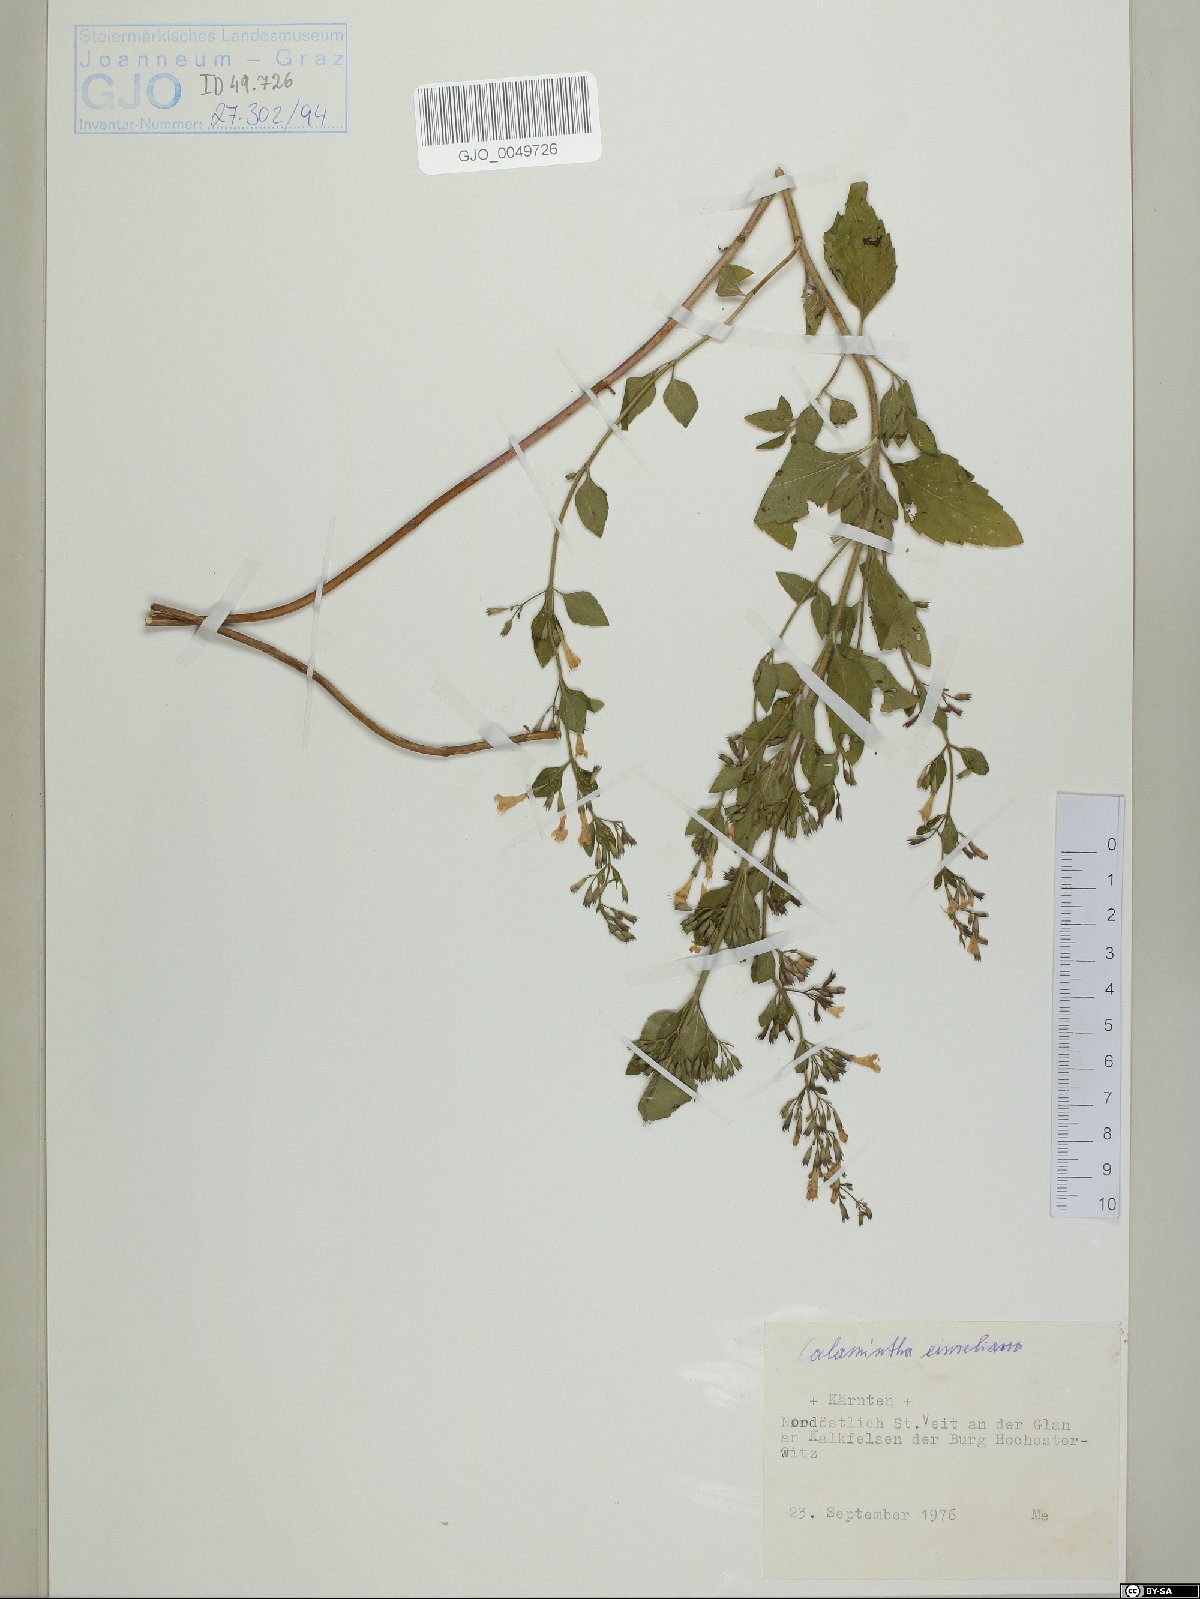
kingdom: Plantae
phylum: Tracheophyta
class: Magnoliopsida
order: Lamiales
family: Lamiaceae
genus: Clinopodium
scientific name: Clinopodium nepeta
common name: Lesser calamint
